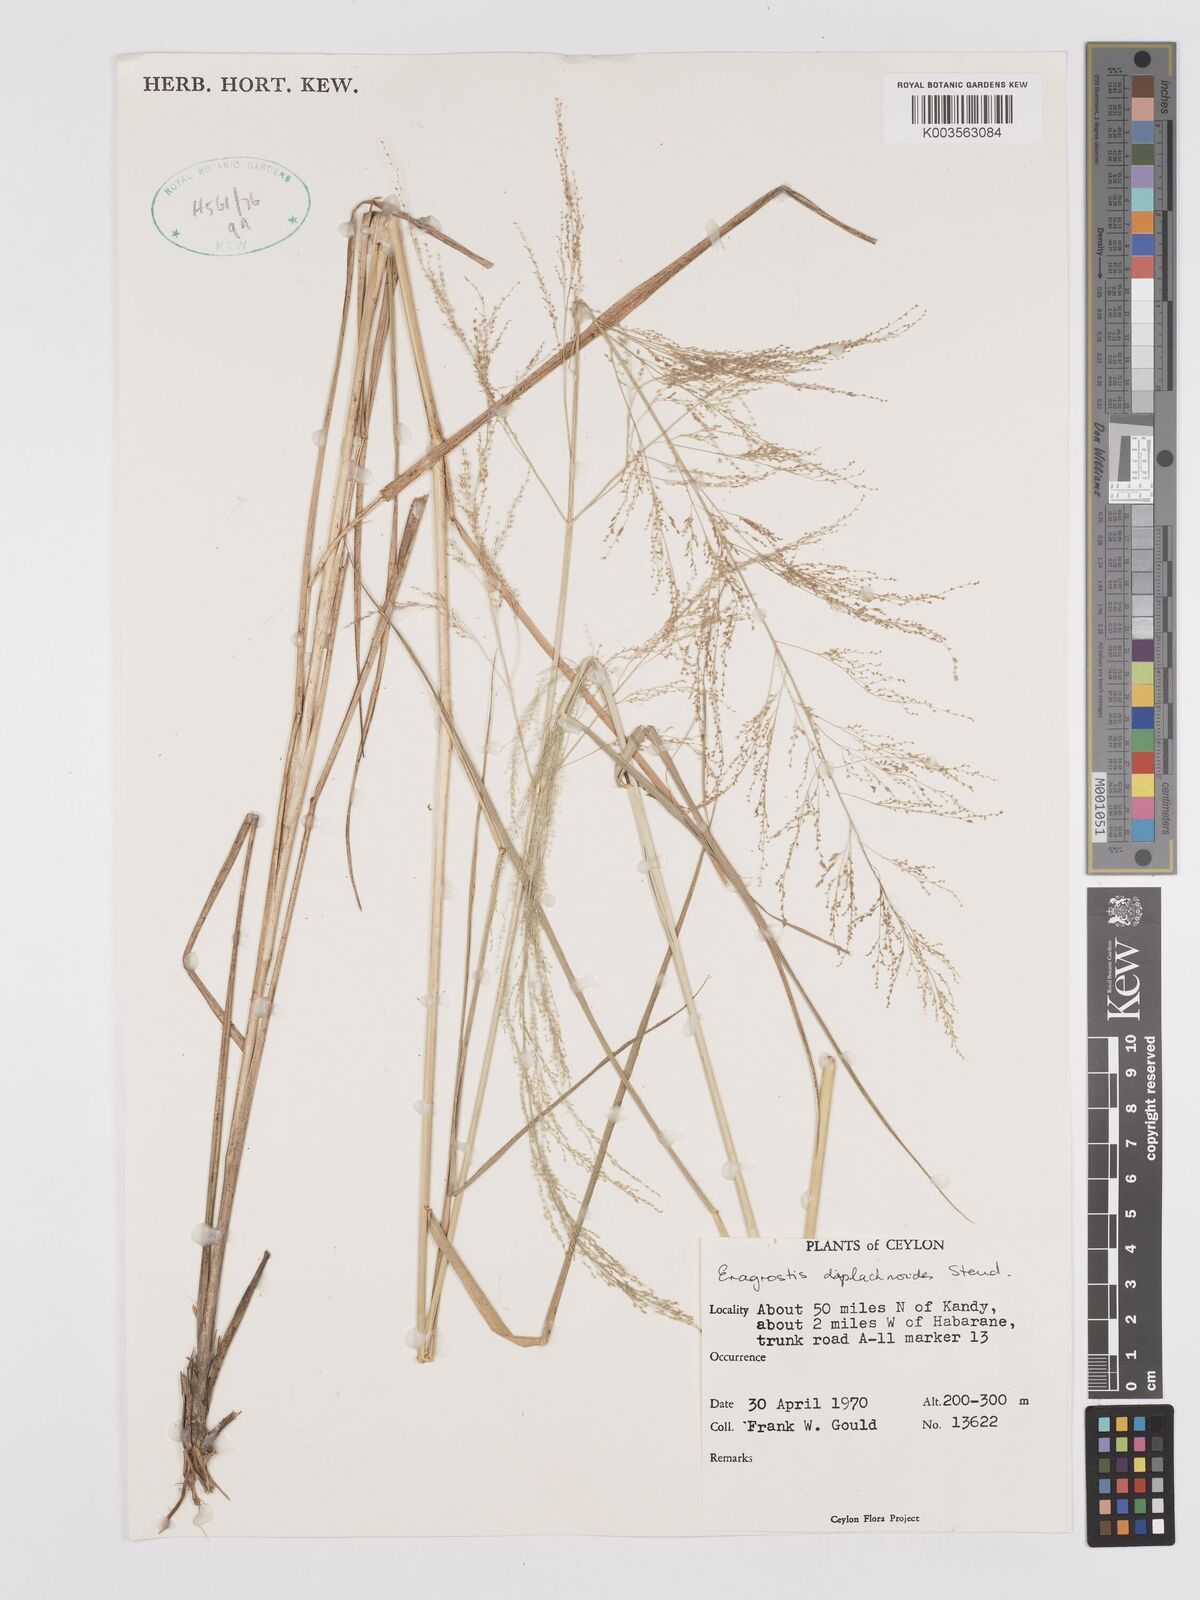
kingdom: Plantae
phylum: Tracheophyta
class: Liliopsida
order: Poales
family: Poaceae
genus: Eragrostis
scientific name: Eragrostis japonica
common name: Pond lovegrass
